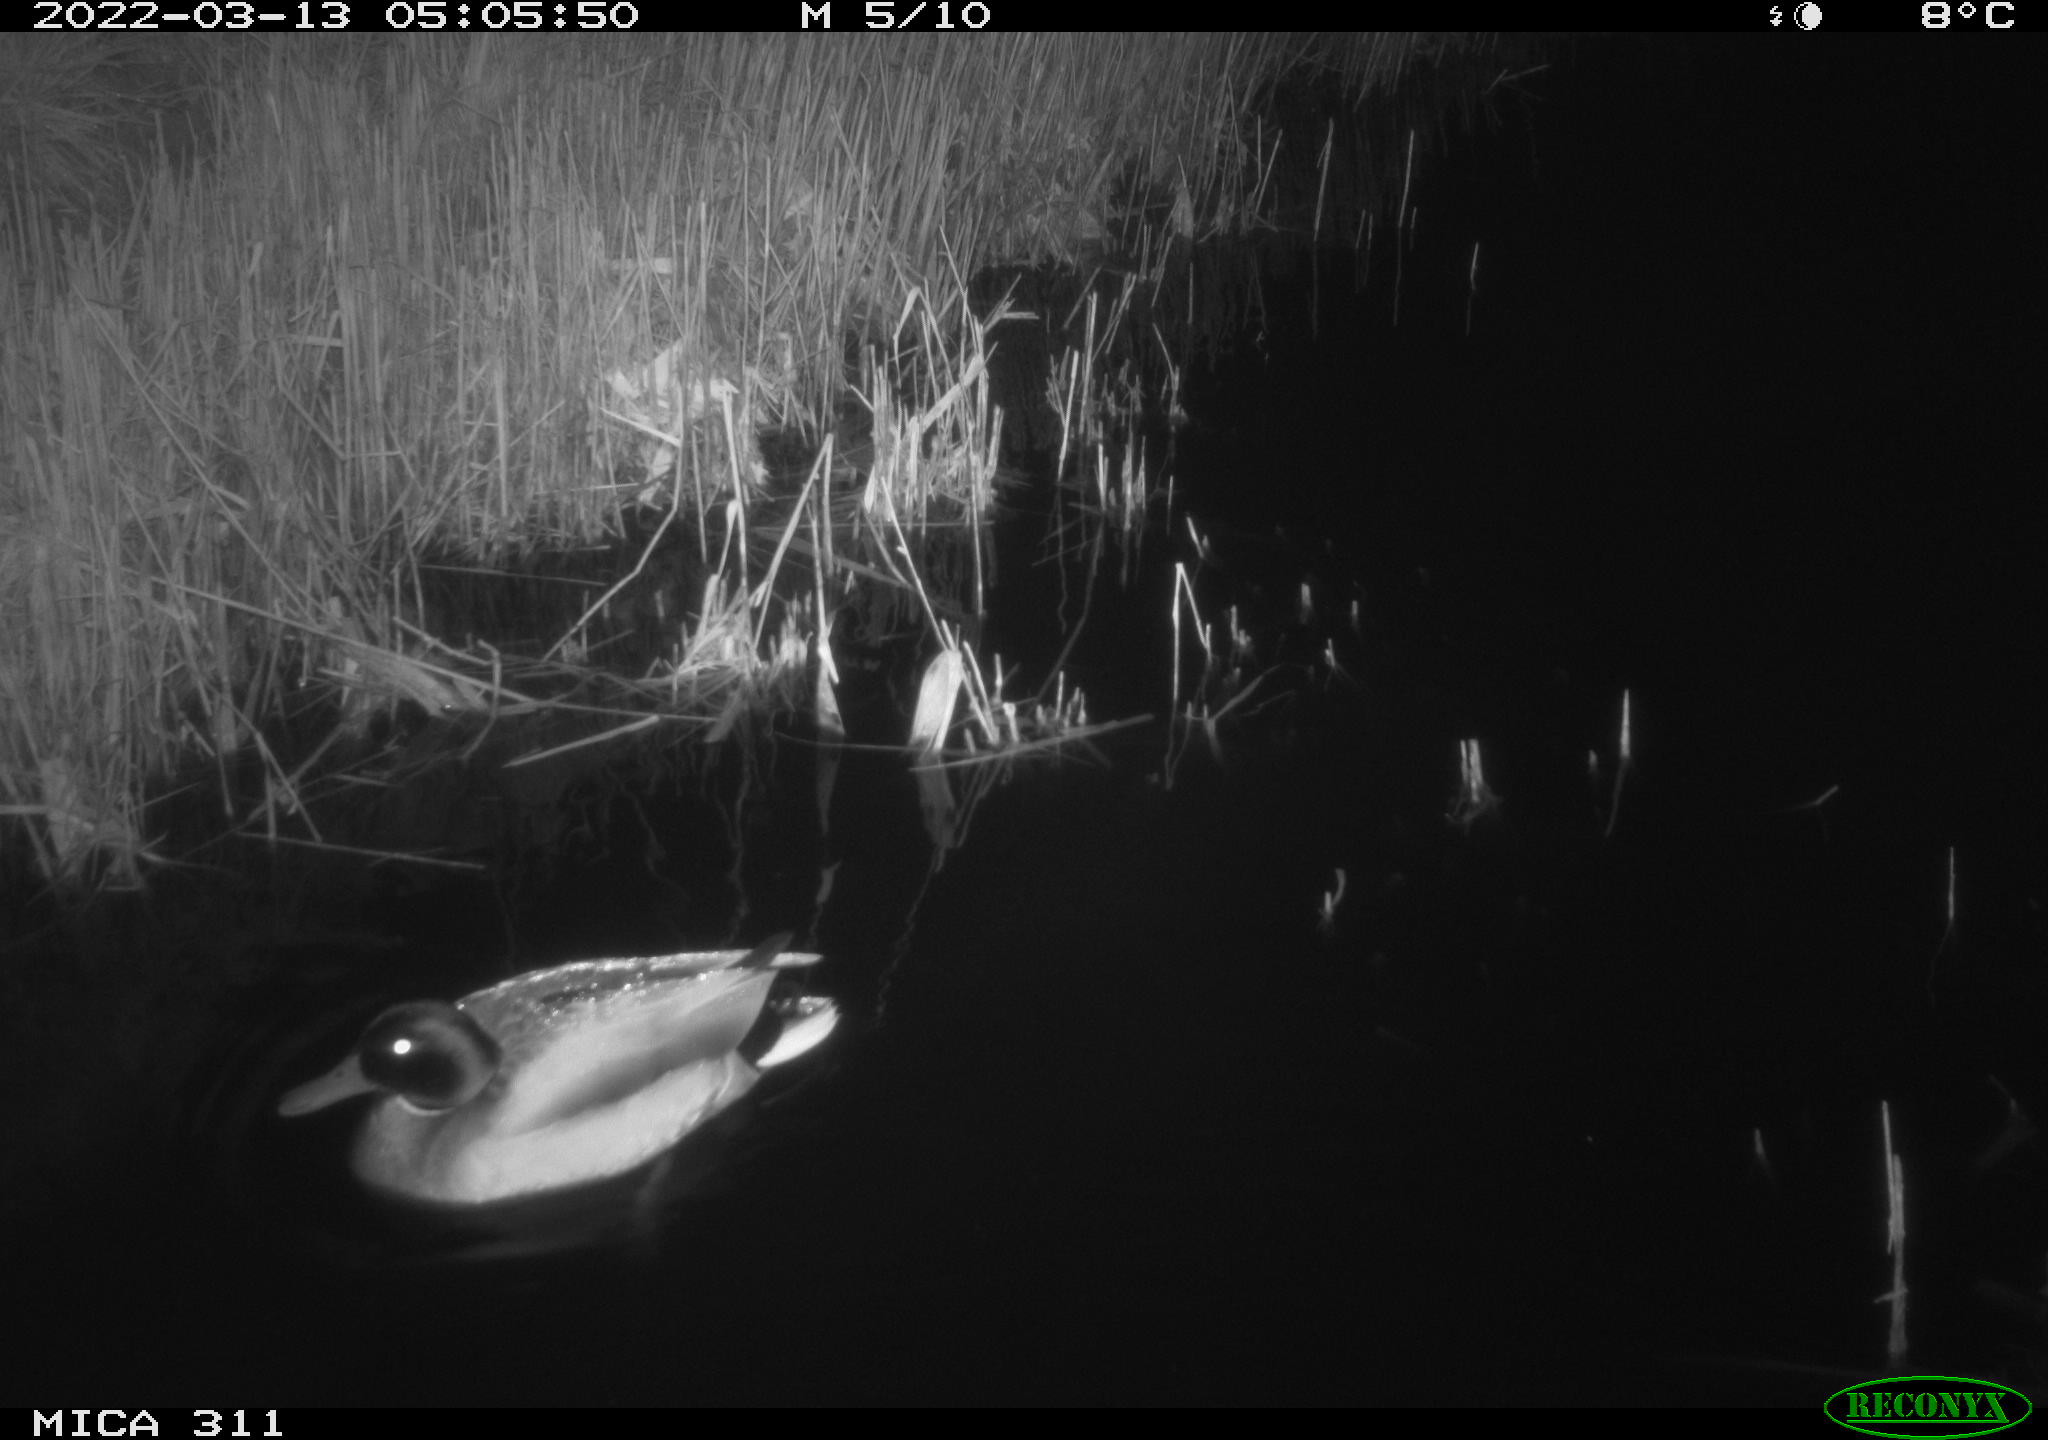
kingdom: Animalia
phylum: Chordata
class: Aves
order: Anseriformes
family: Anatidae
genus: Anas
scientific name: Anas
